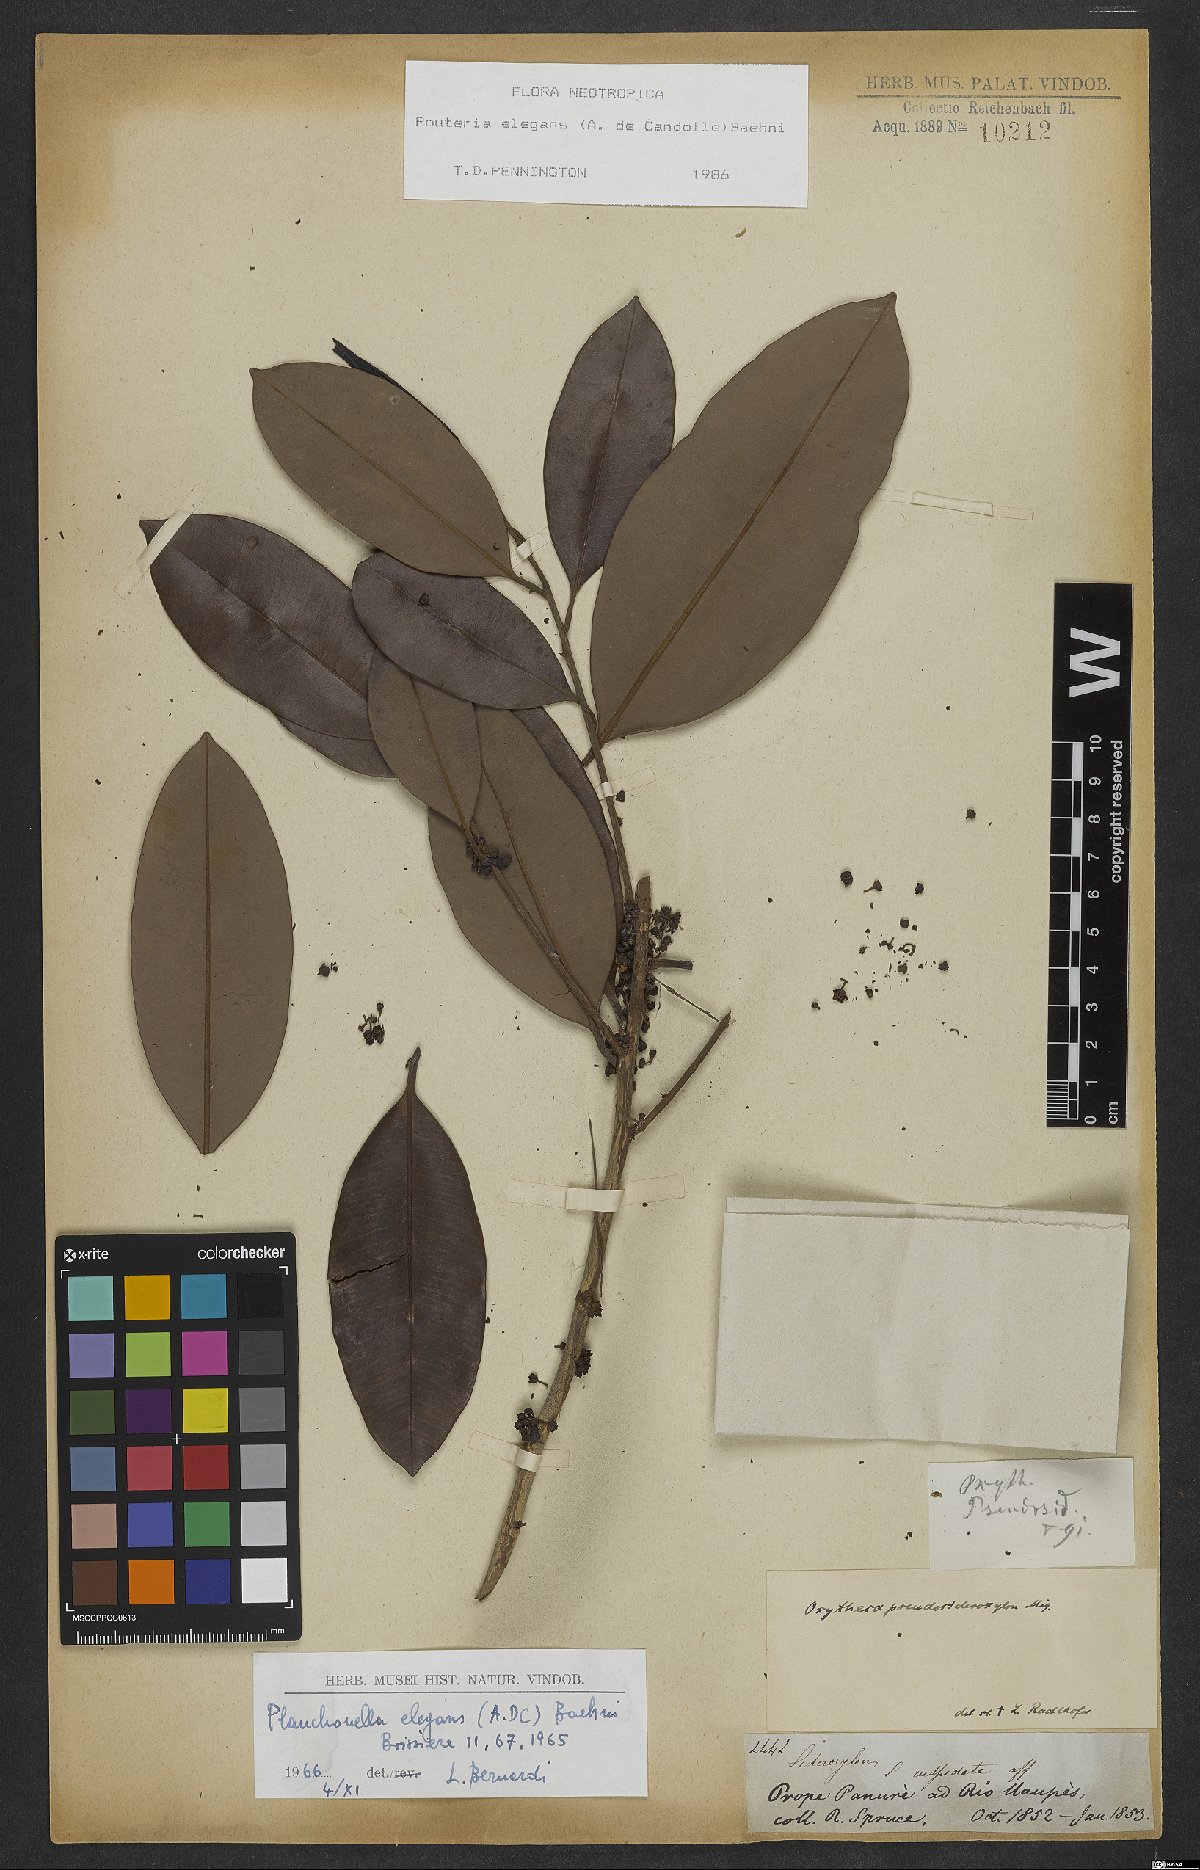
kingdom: Plantae
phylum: Tracheophyta
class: Magnoliopsida
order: Ericales
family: Sapotaceae
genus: Pouteria
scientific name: Pouteria elegans
